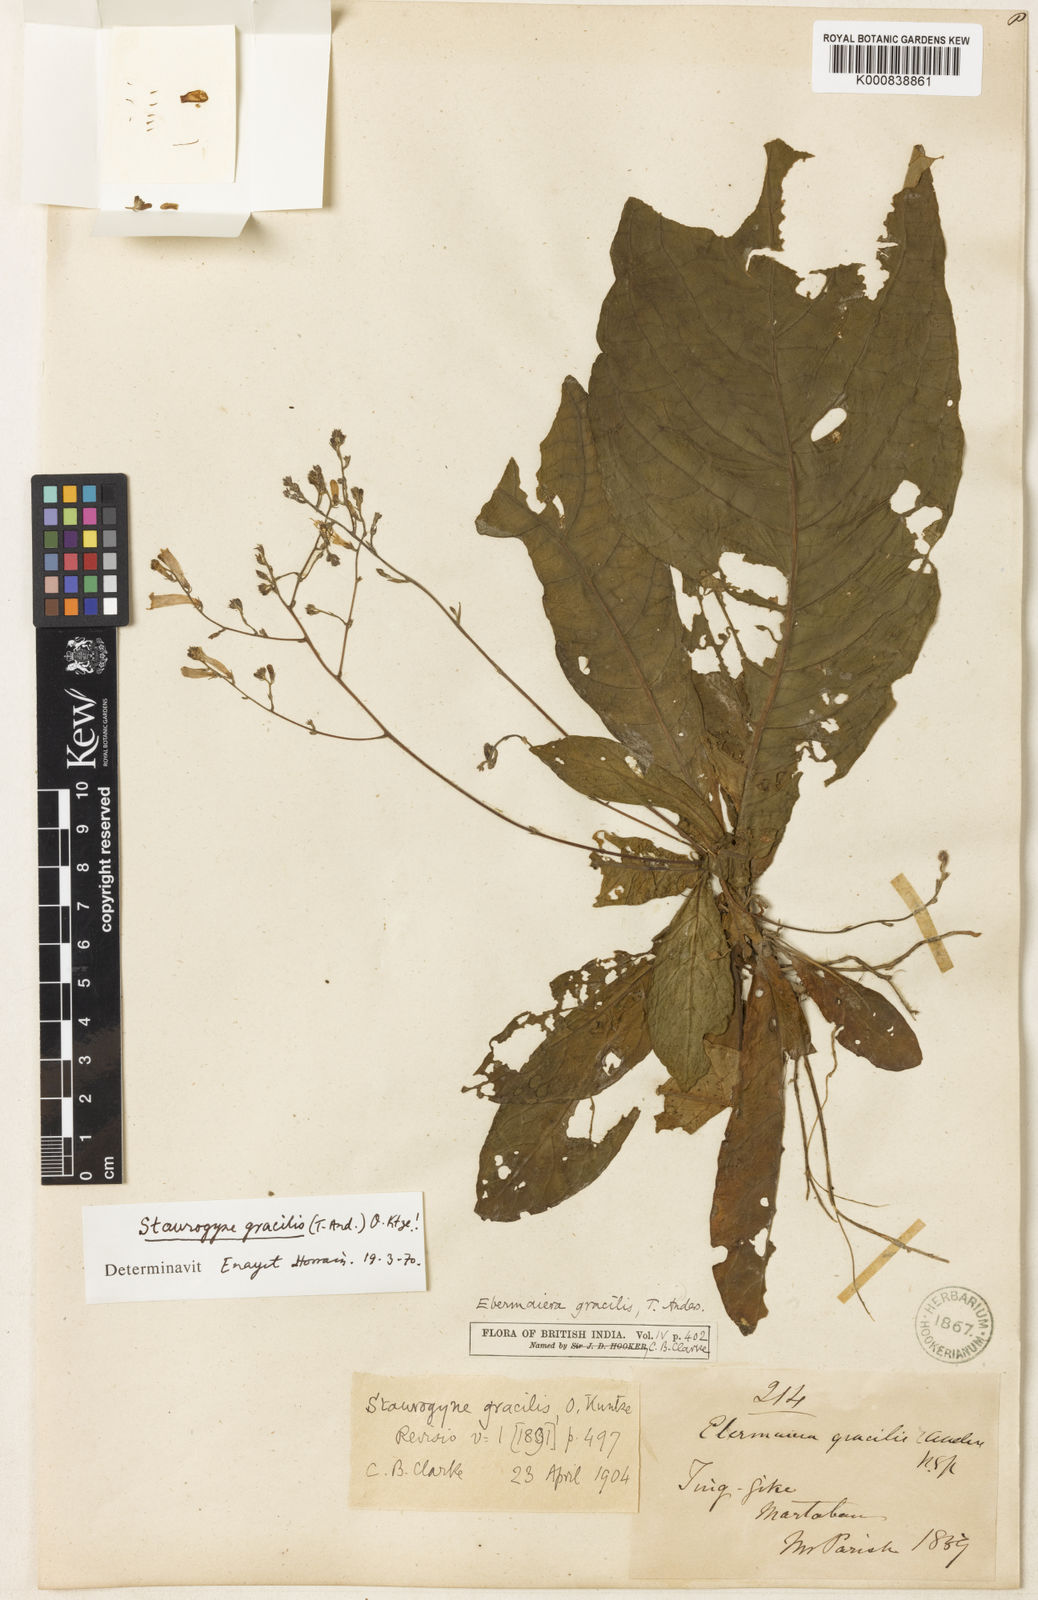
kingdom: Plantae
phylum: Tracheophyta
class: Magnoliopsida
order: Lamiales
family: Acanthaceae
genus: Staurogyne
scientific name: Staurogyne gracilis
